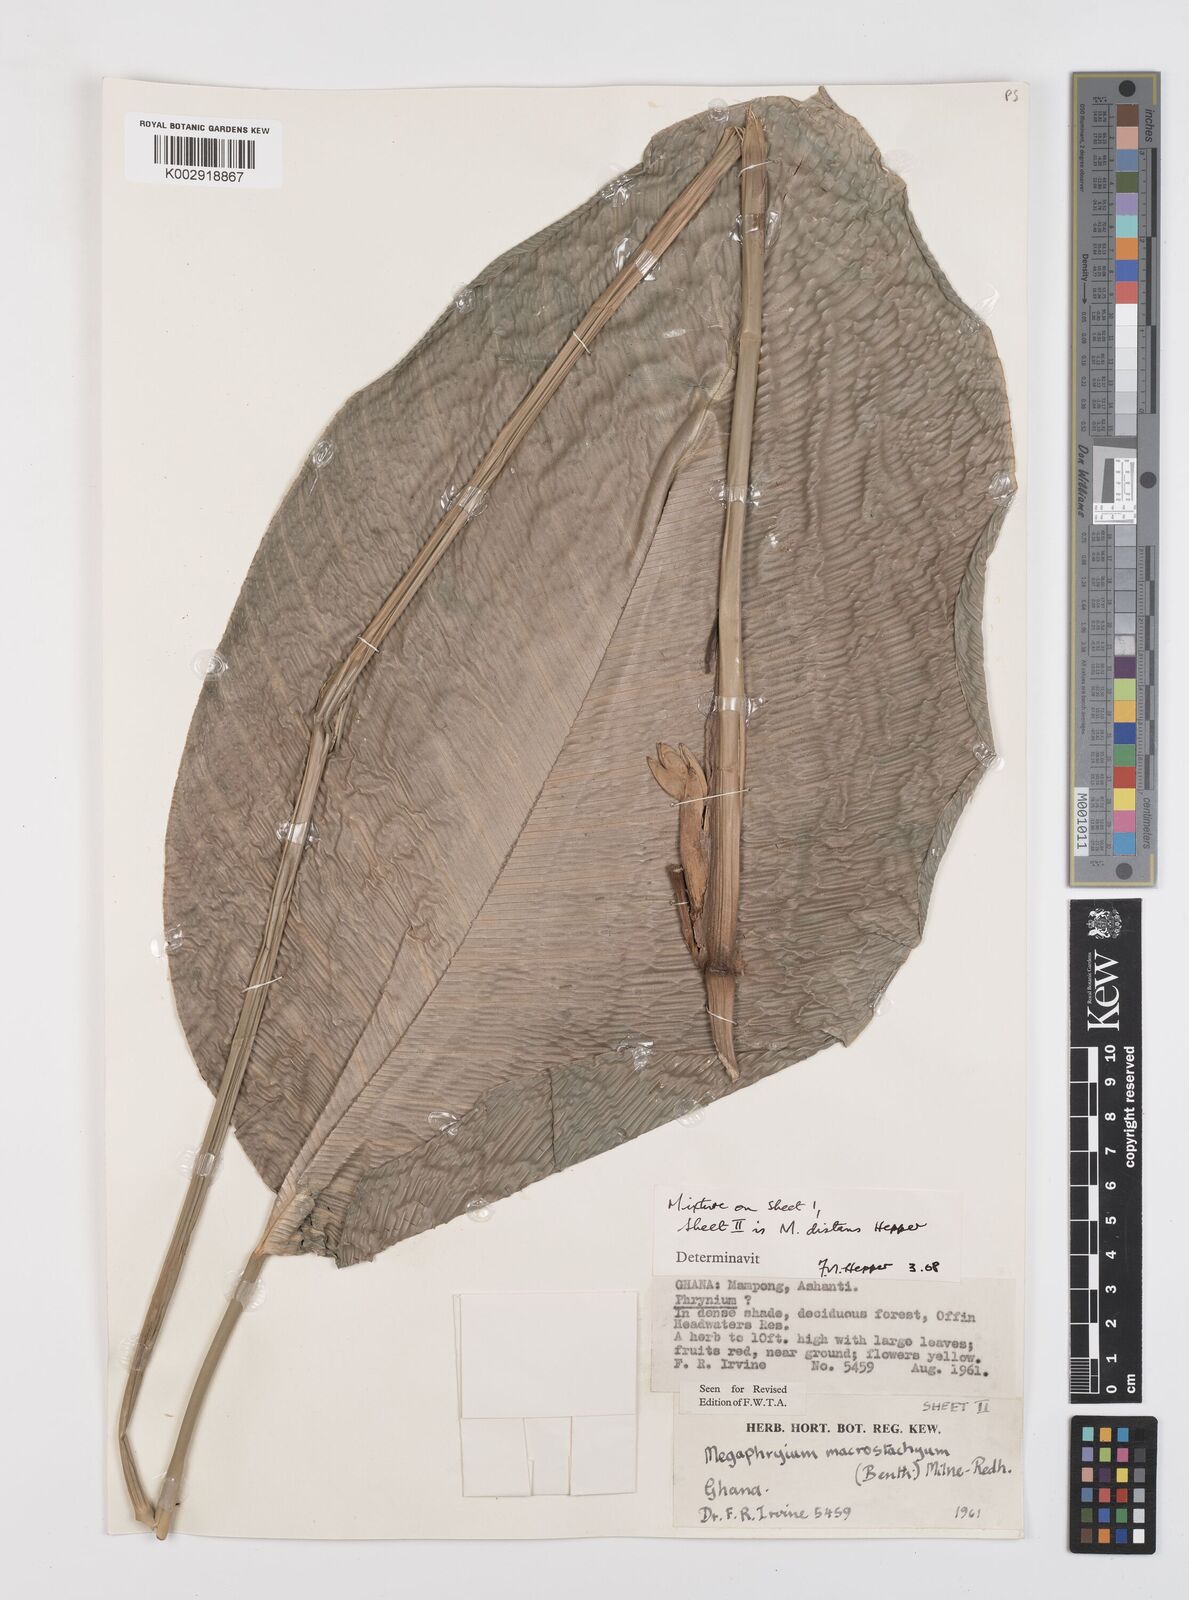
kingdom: Plantae
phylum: Tracheophyta
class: Liliopsida
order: Zingiberales
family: Marantaceae
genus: Megaphrynium
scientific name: Megaphrynium macrostachyum
